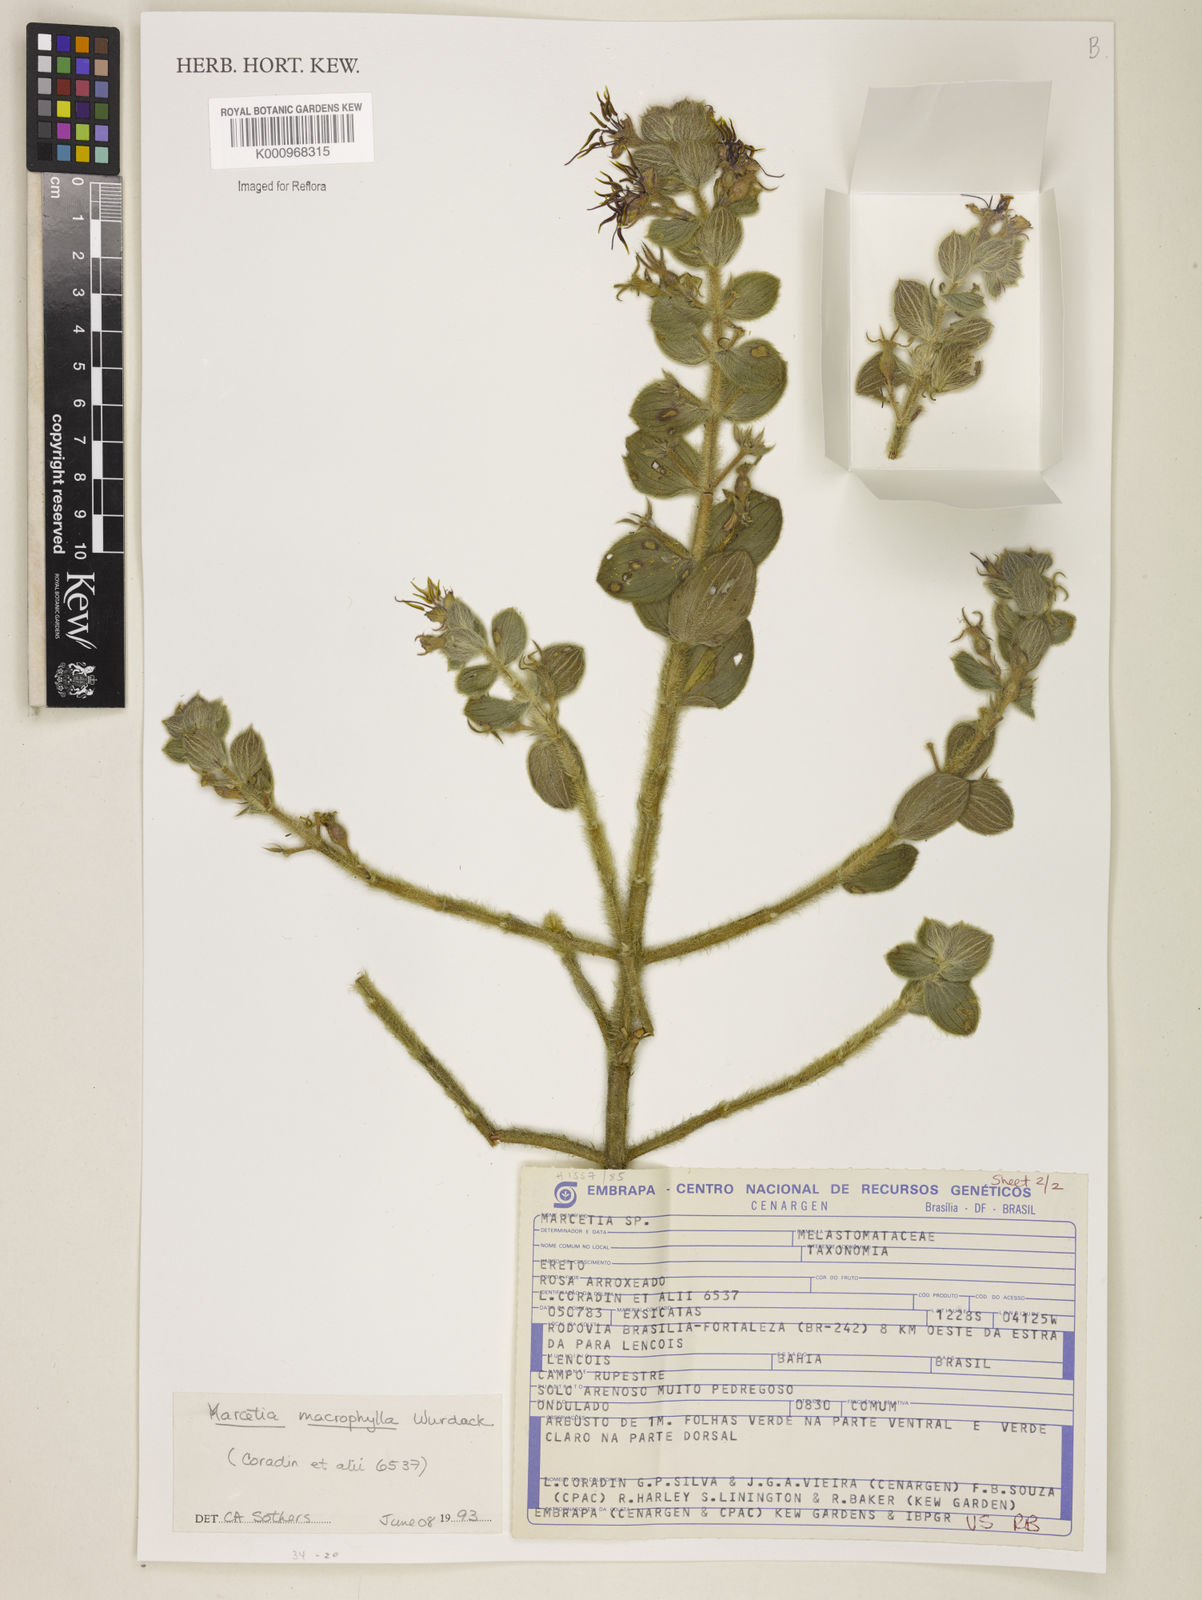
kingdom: Plantae
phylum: Tracheophyta
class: Magnoliopsida
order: Myrtales
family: Melastomataceae
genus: Marcetia
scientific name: Marcetia macrophylla
